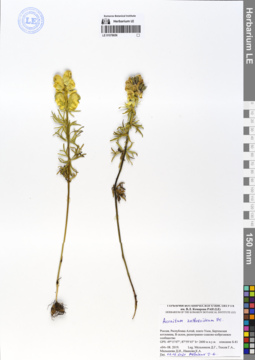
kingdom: Plantae
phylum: Tracheophyta
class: Magnoliopsida
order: Ranunculales
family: Ranunculaceae
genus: Aconitum
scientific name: Aconitum anthoroideum
